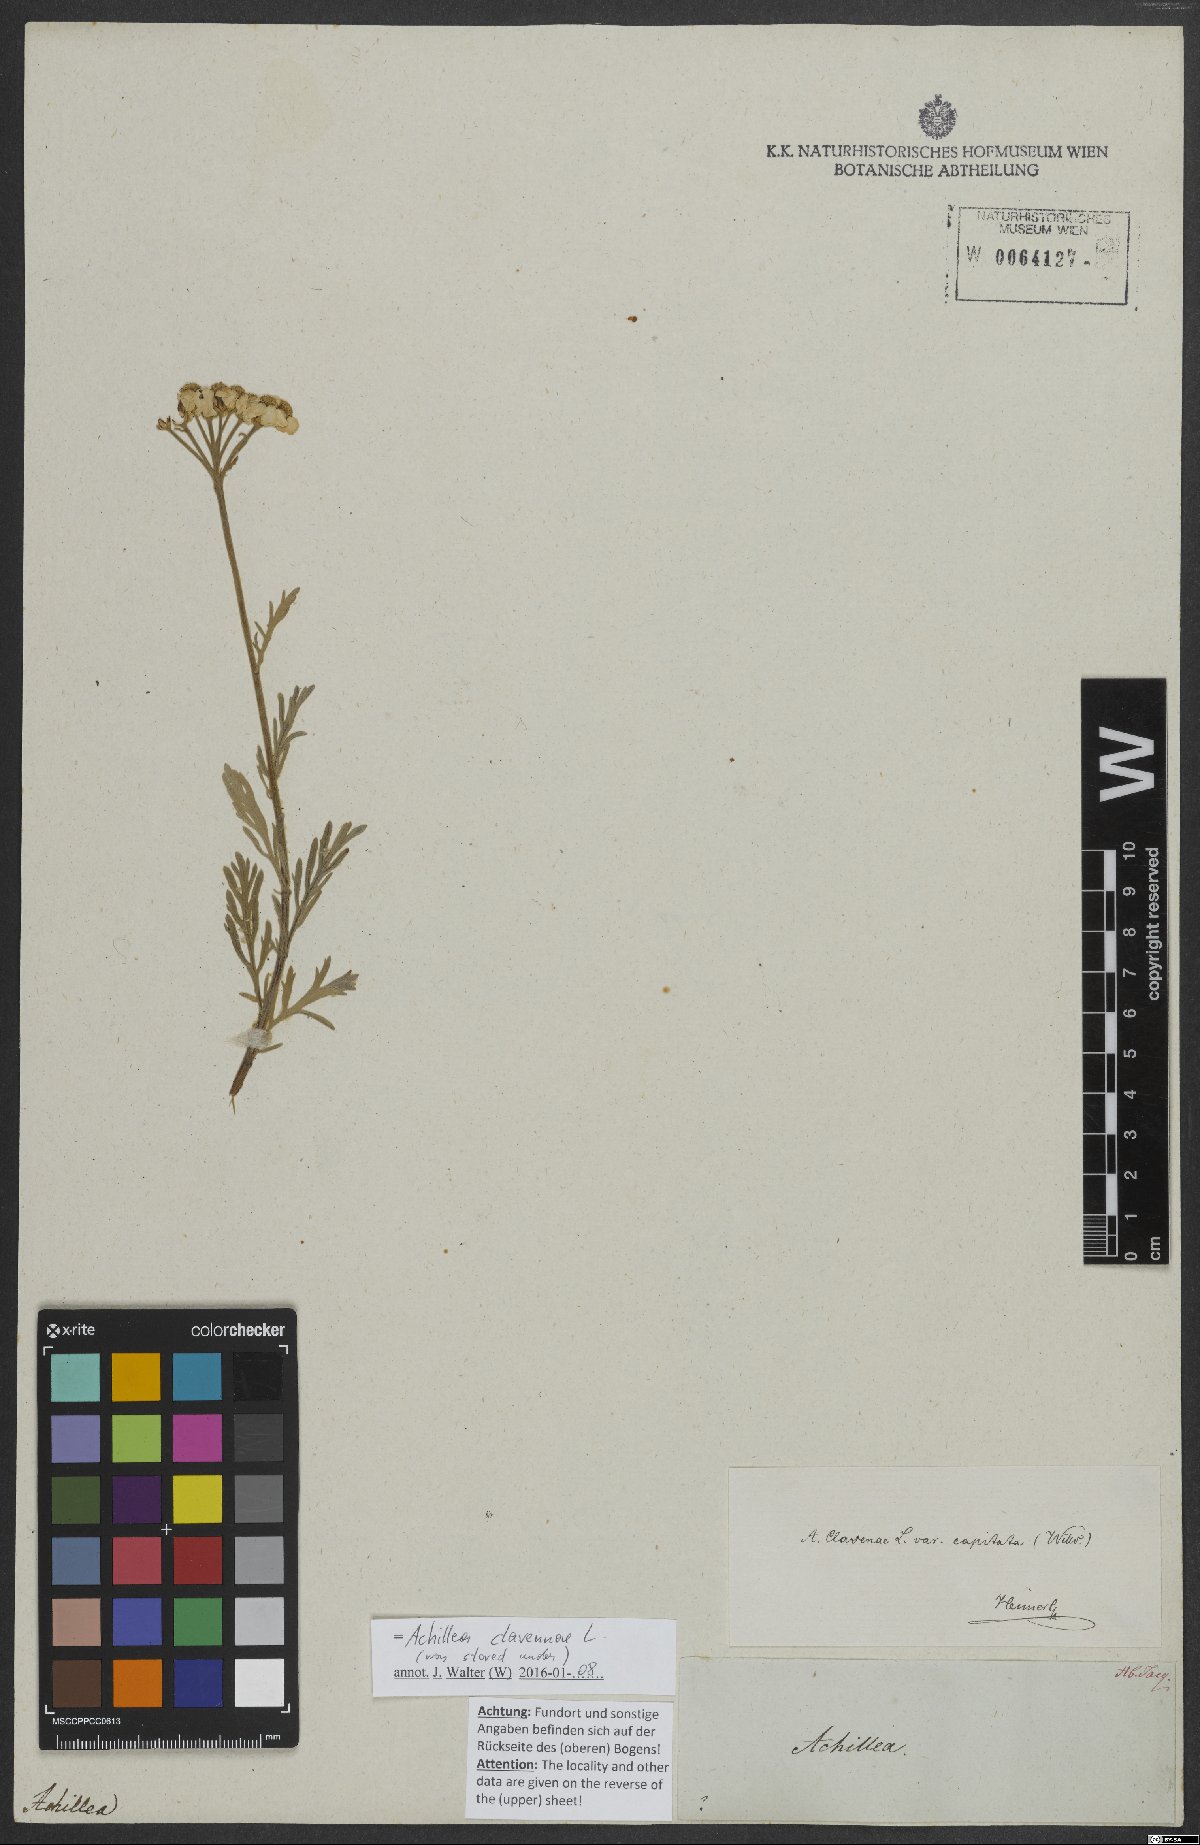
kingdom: Plantae
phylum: Tracheophyta
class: Magnoliopsida
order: Asterales
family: Asteraceae
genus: Achillea
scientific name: Achillea clavennae
